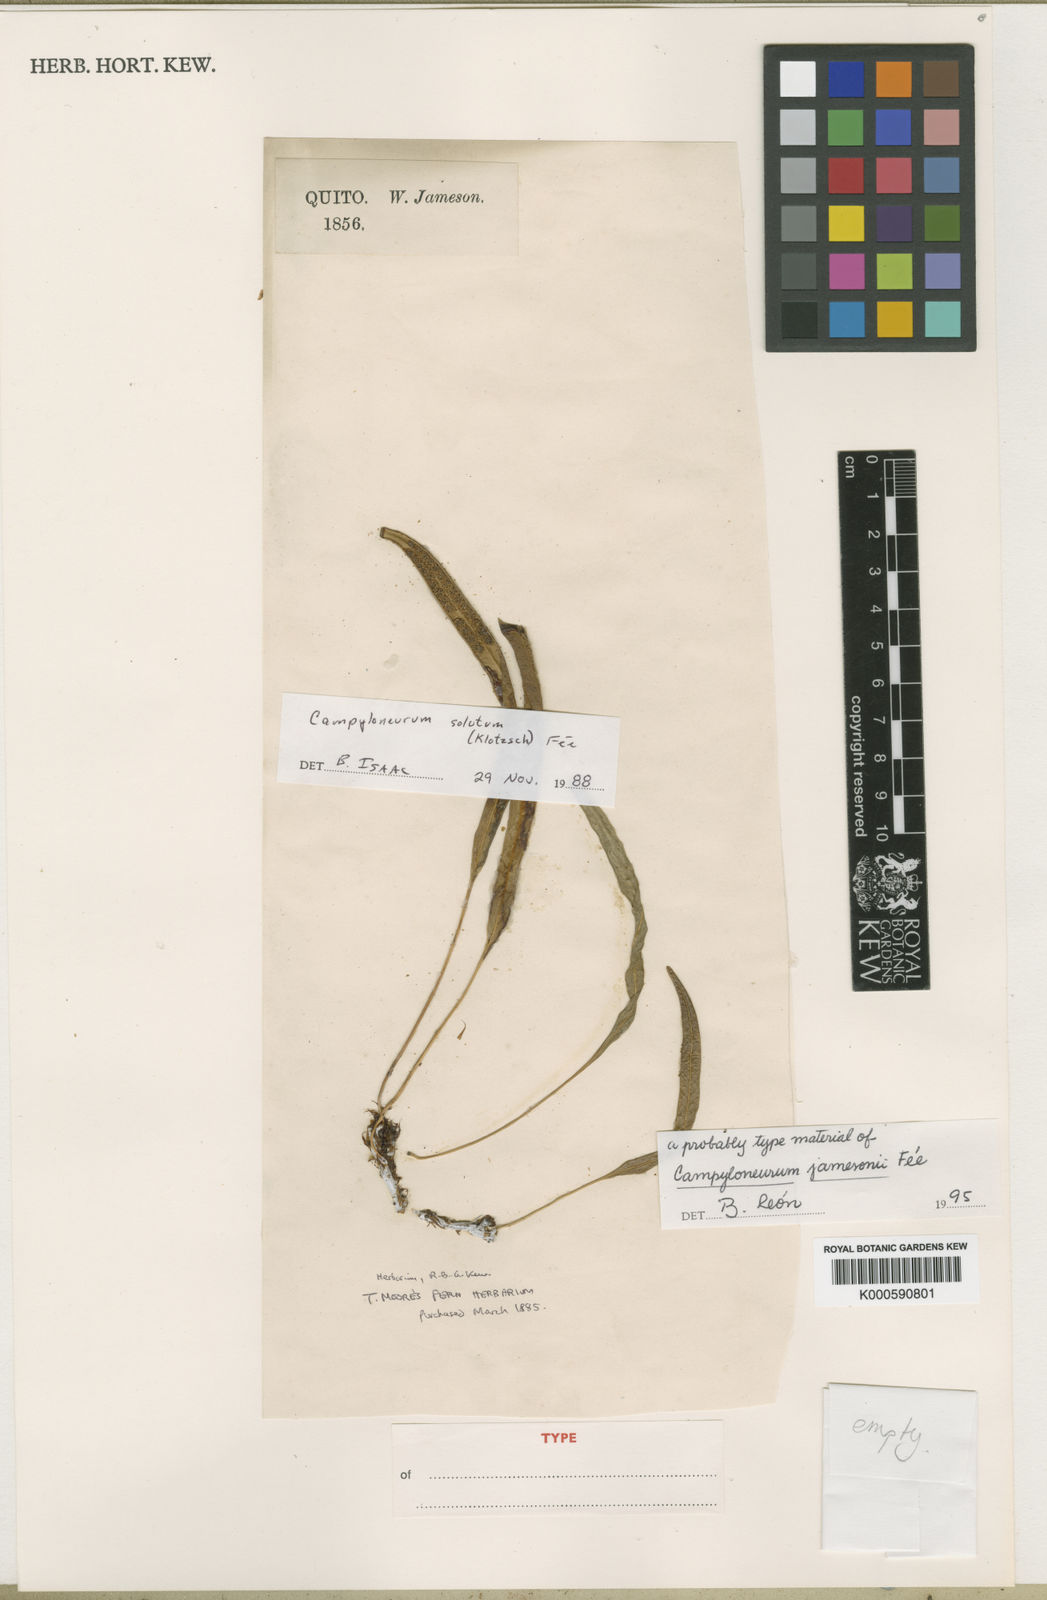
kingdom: Plantae
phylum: Tracheophyta
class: Polypodiopsida
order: Polypodiales
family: Polypodiaceae
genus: Campyloneurum
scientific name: Campyloneurum
